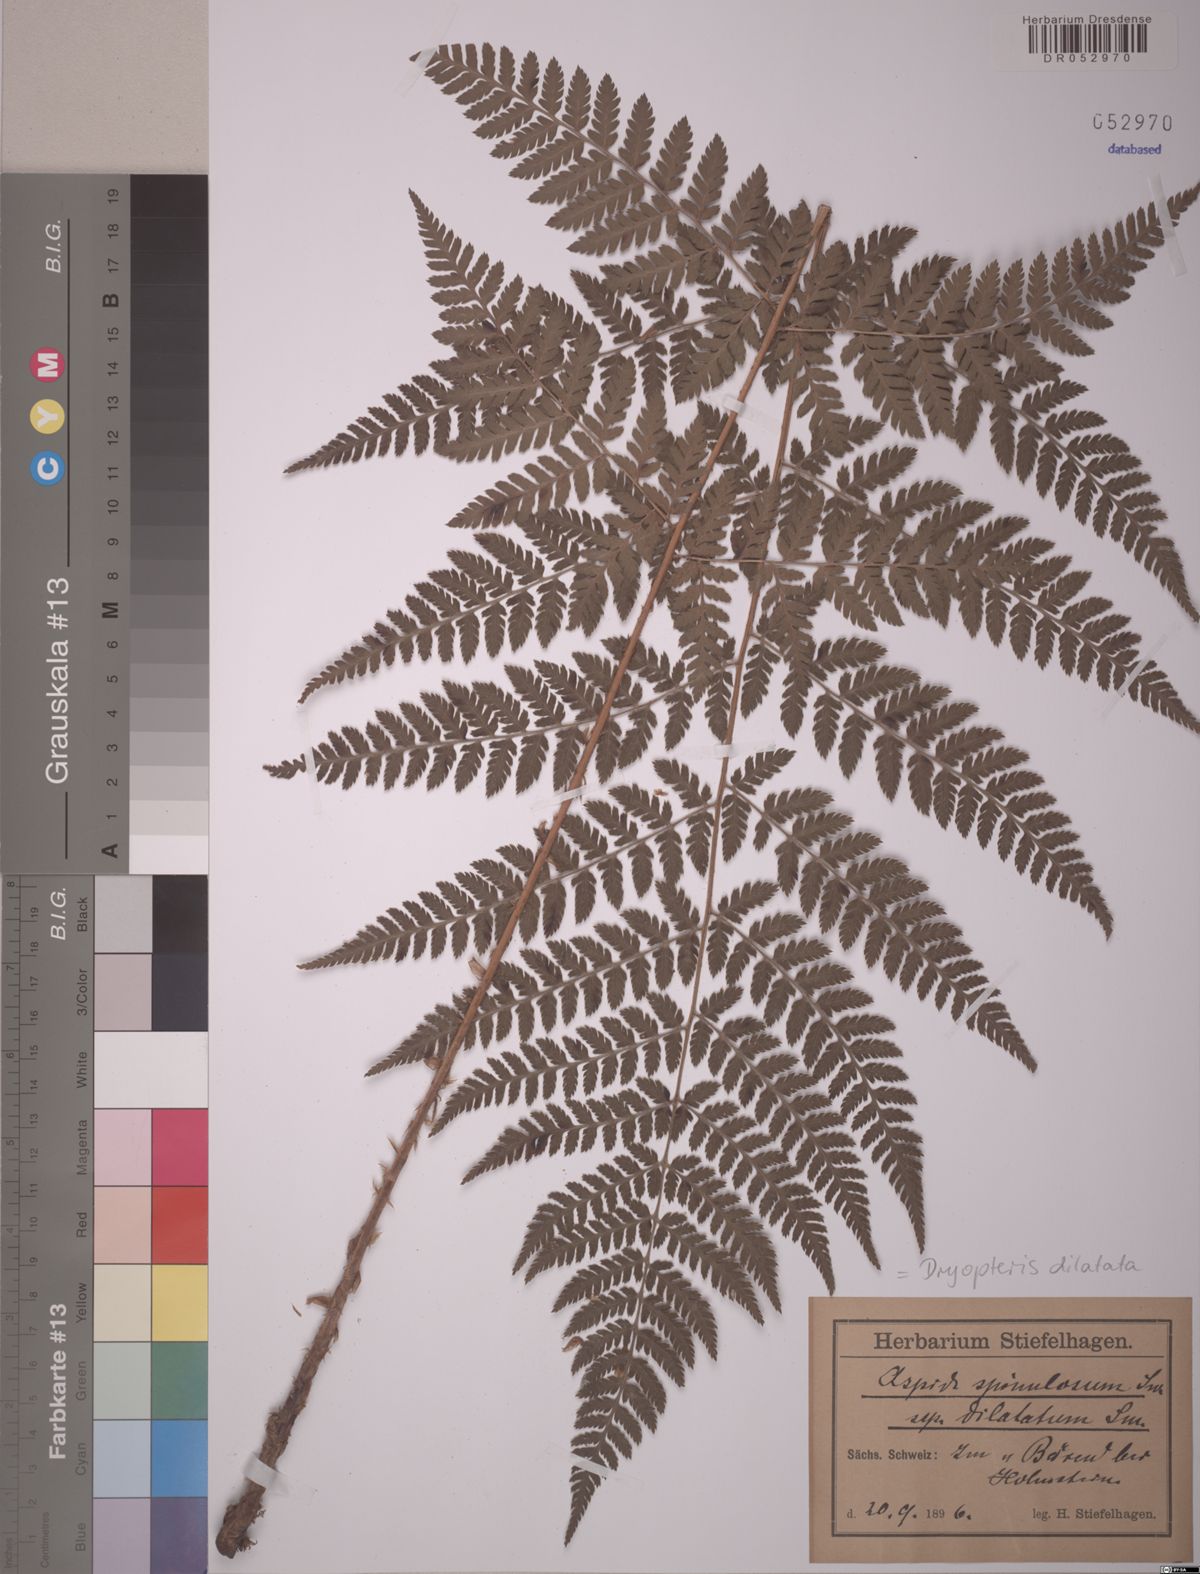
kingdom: Plantae
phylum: Tracheophyta
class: Polypodiopsida
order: Polypodiales
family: Dryopteridaceae
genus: Dryopteris
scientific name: Dryopteris dilatata
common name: Broad buckler-fern
